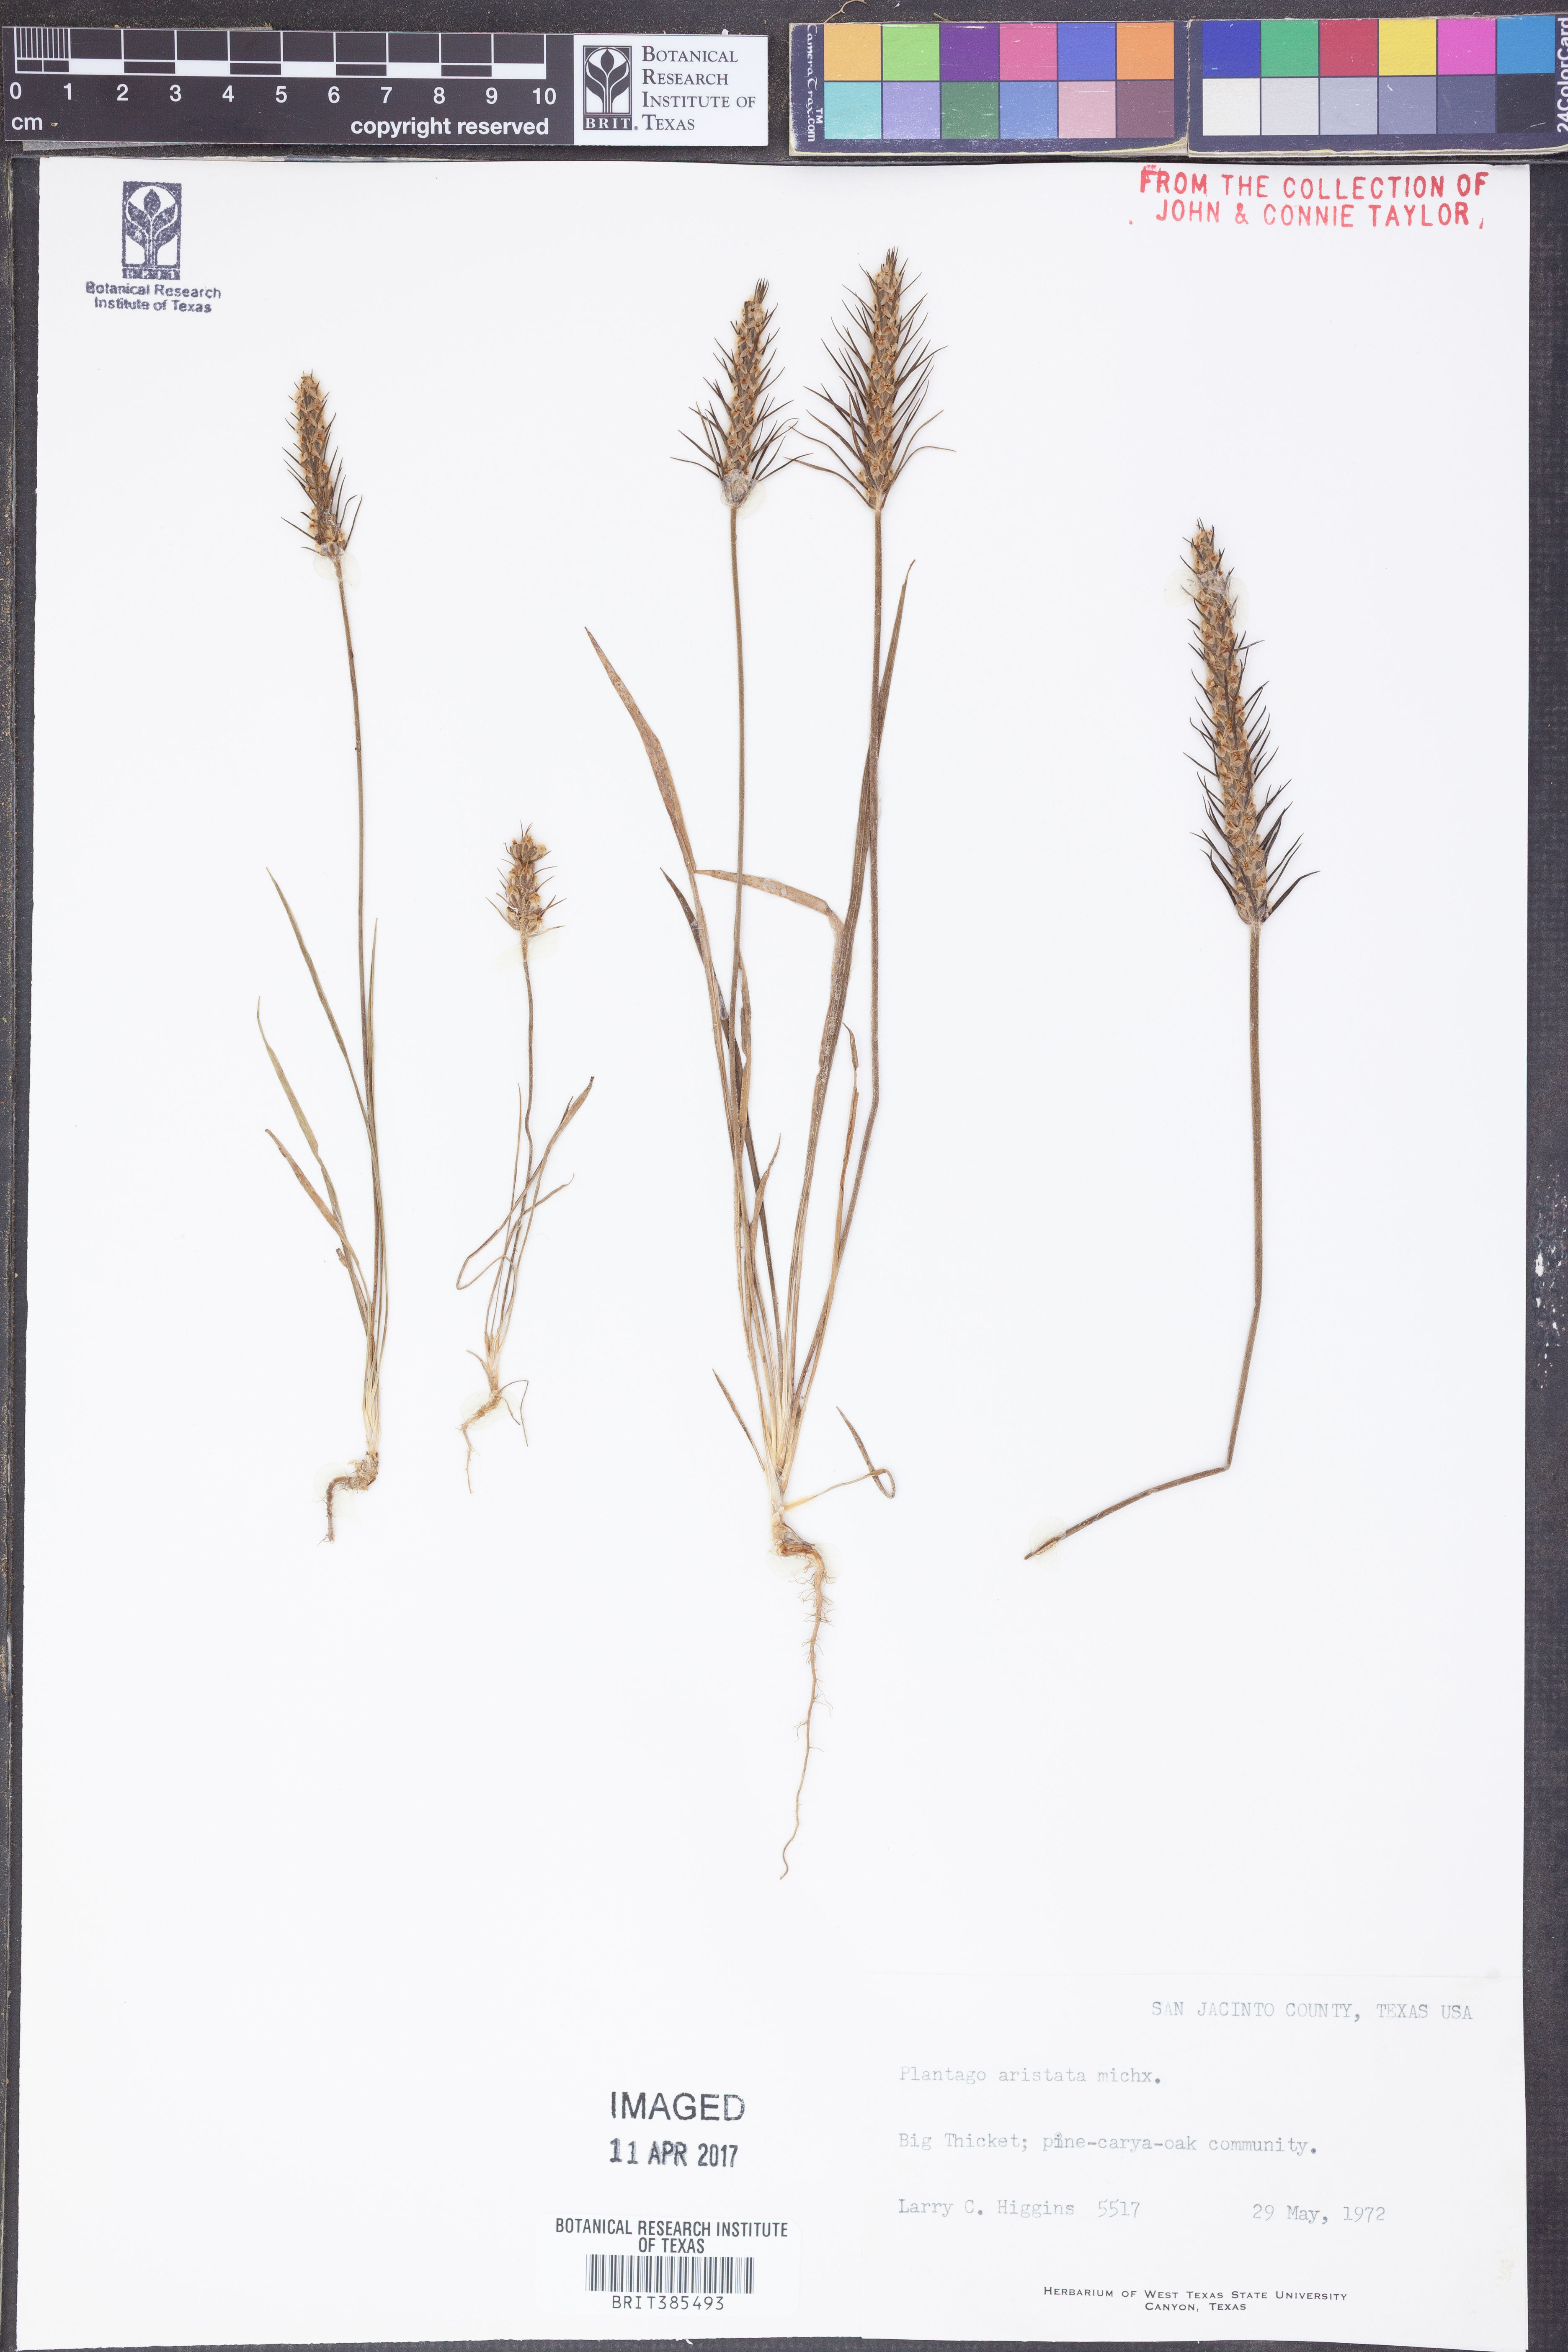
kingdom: Plantae
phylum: Tracheophyta
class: Magnoliopsida
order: Lamiales
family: Plantaginaceae
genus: Plantago
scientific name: Plantago aristata
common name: Bracted plantain
